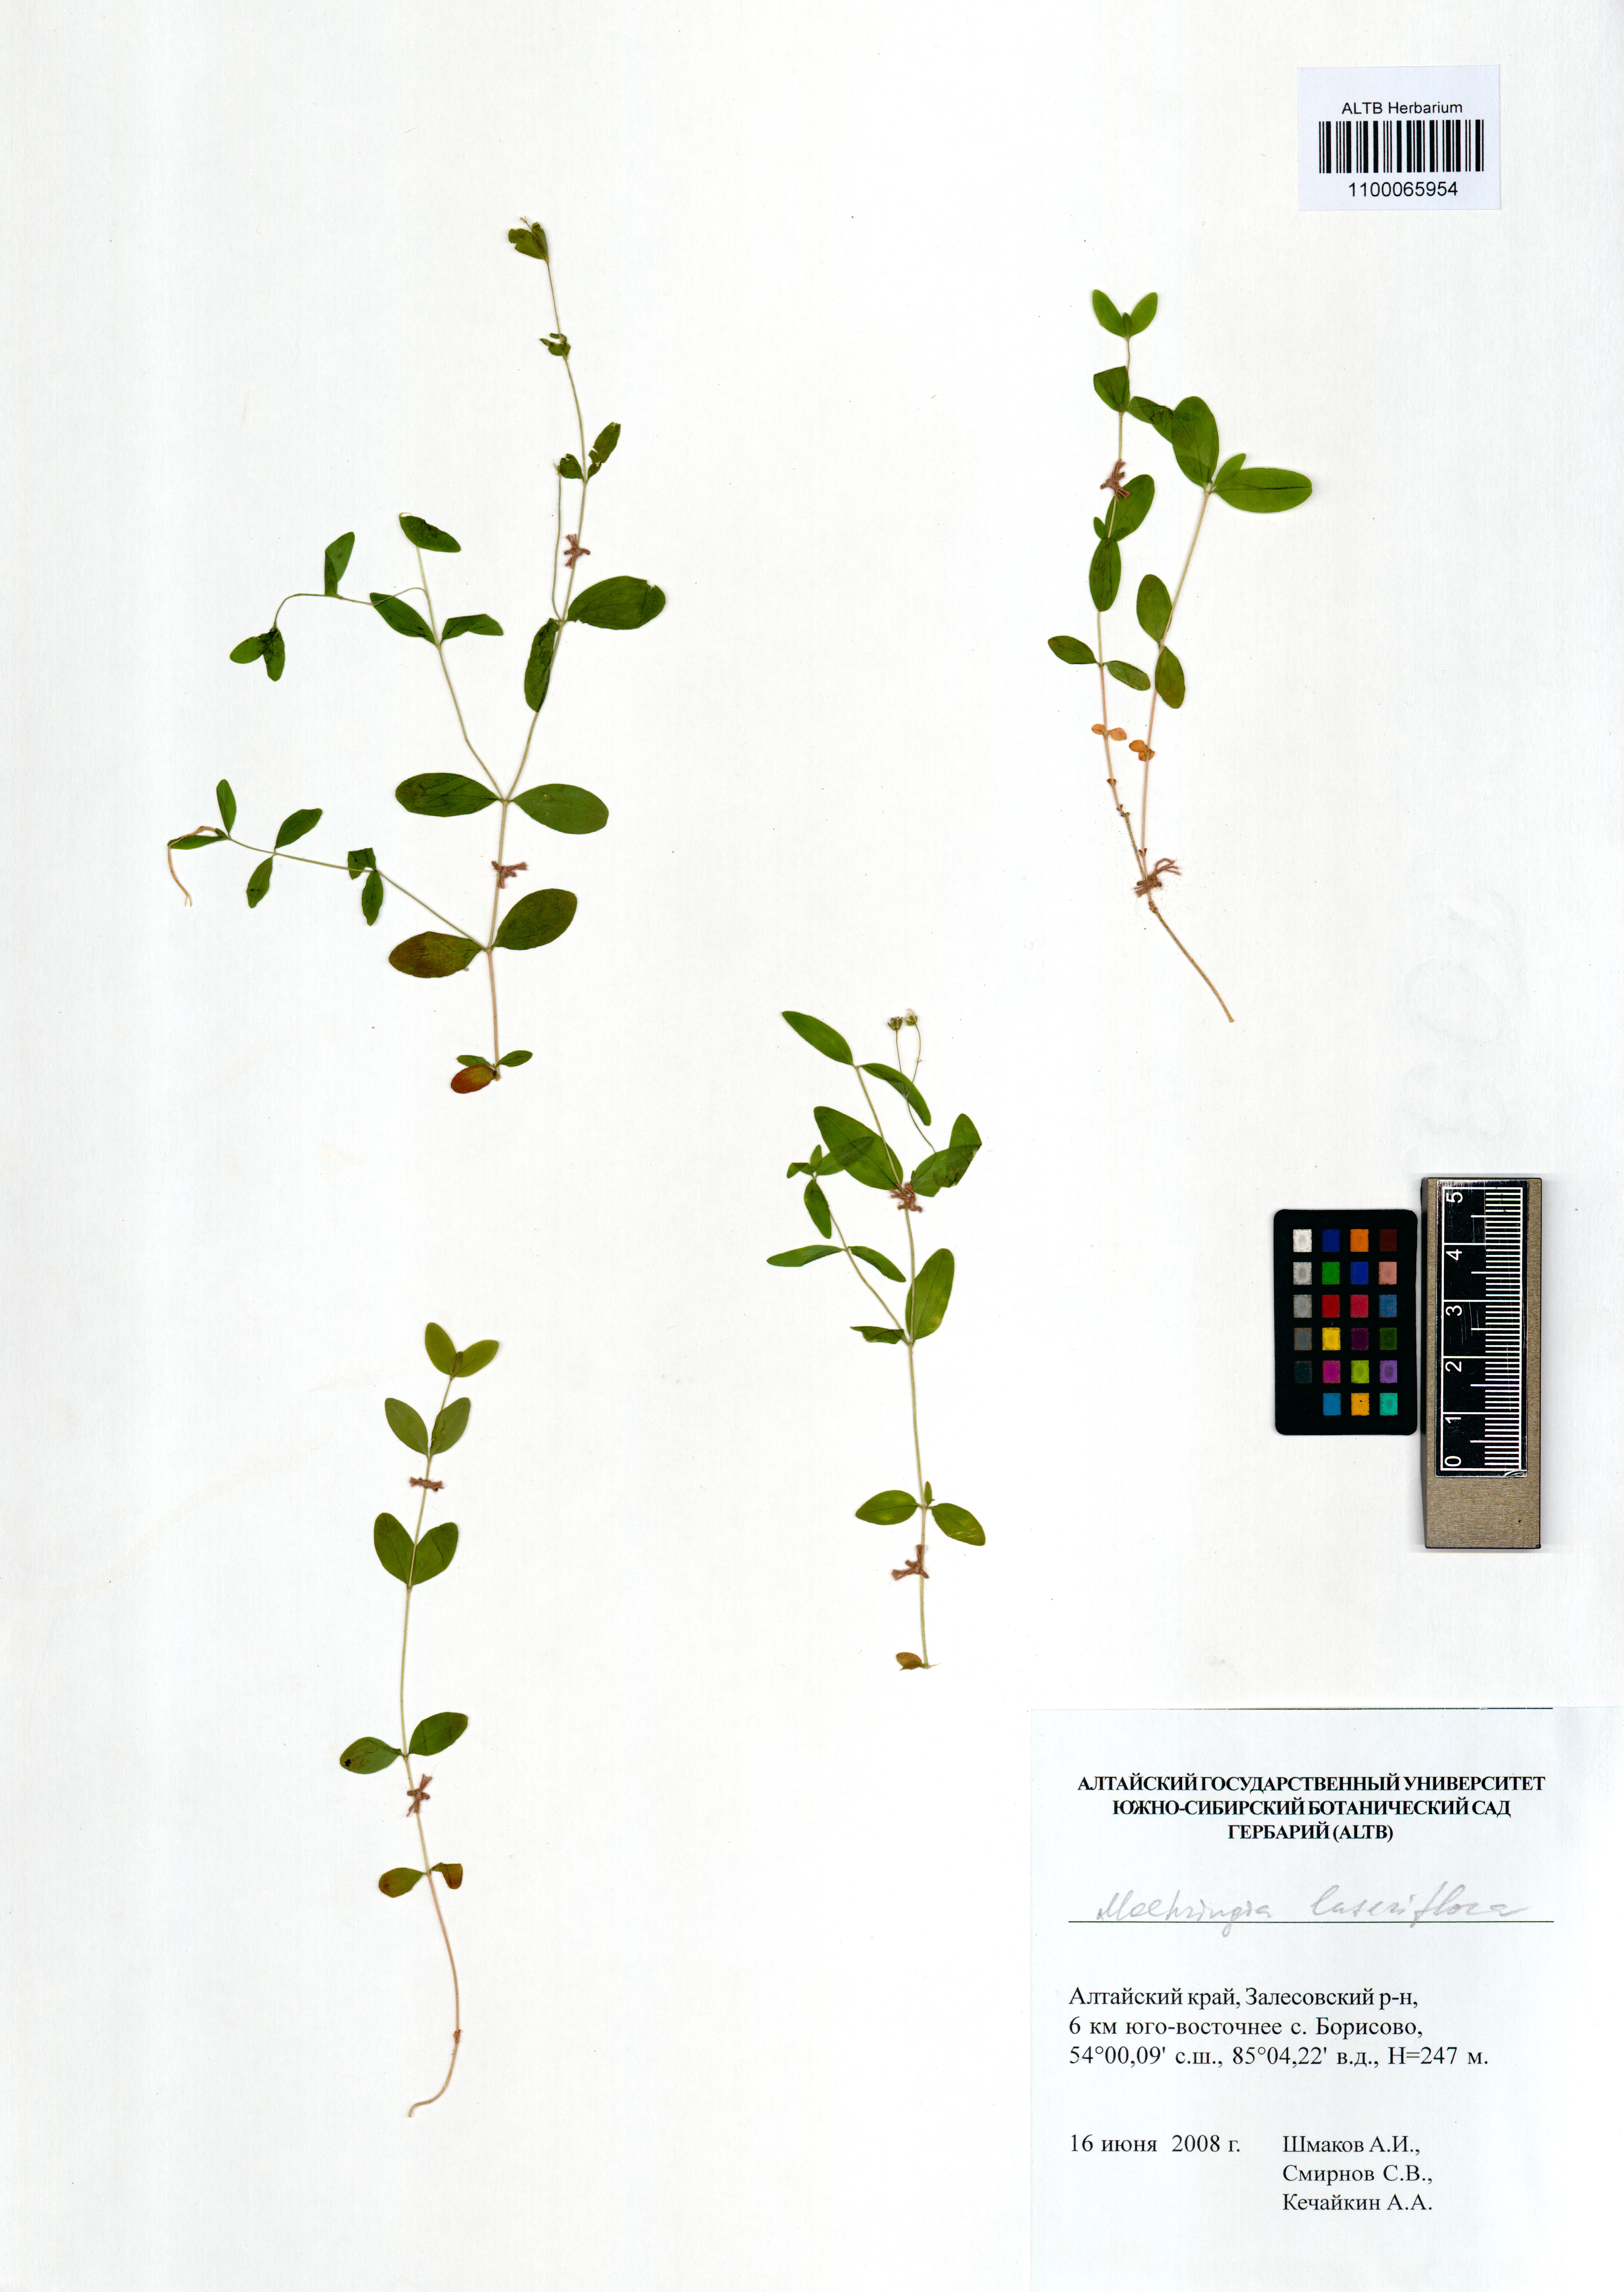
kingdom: Plantae
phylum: Tracheophyta
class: Magnoliopsida
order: Caryophyllales
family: Caryophyllaceae
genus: Moehringia
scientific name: Moehringia lateriflora
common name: Blunt-leaved sandwort
